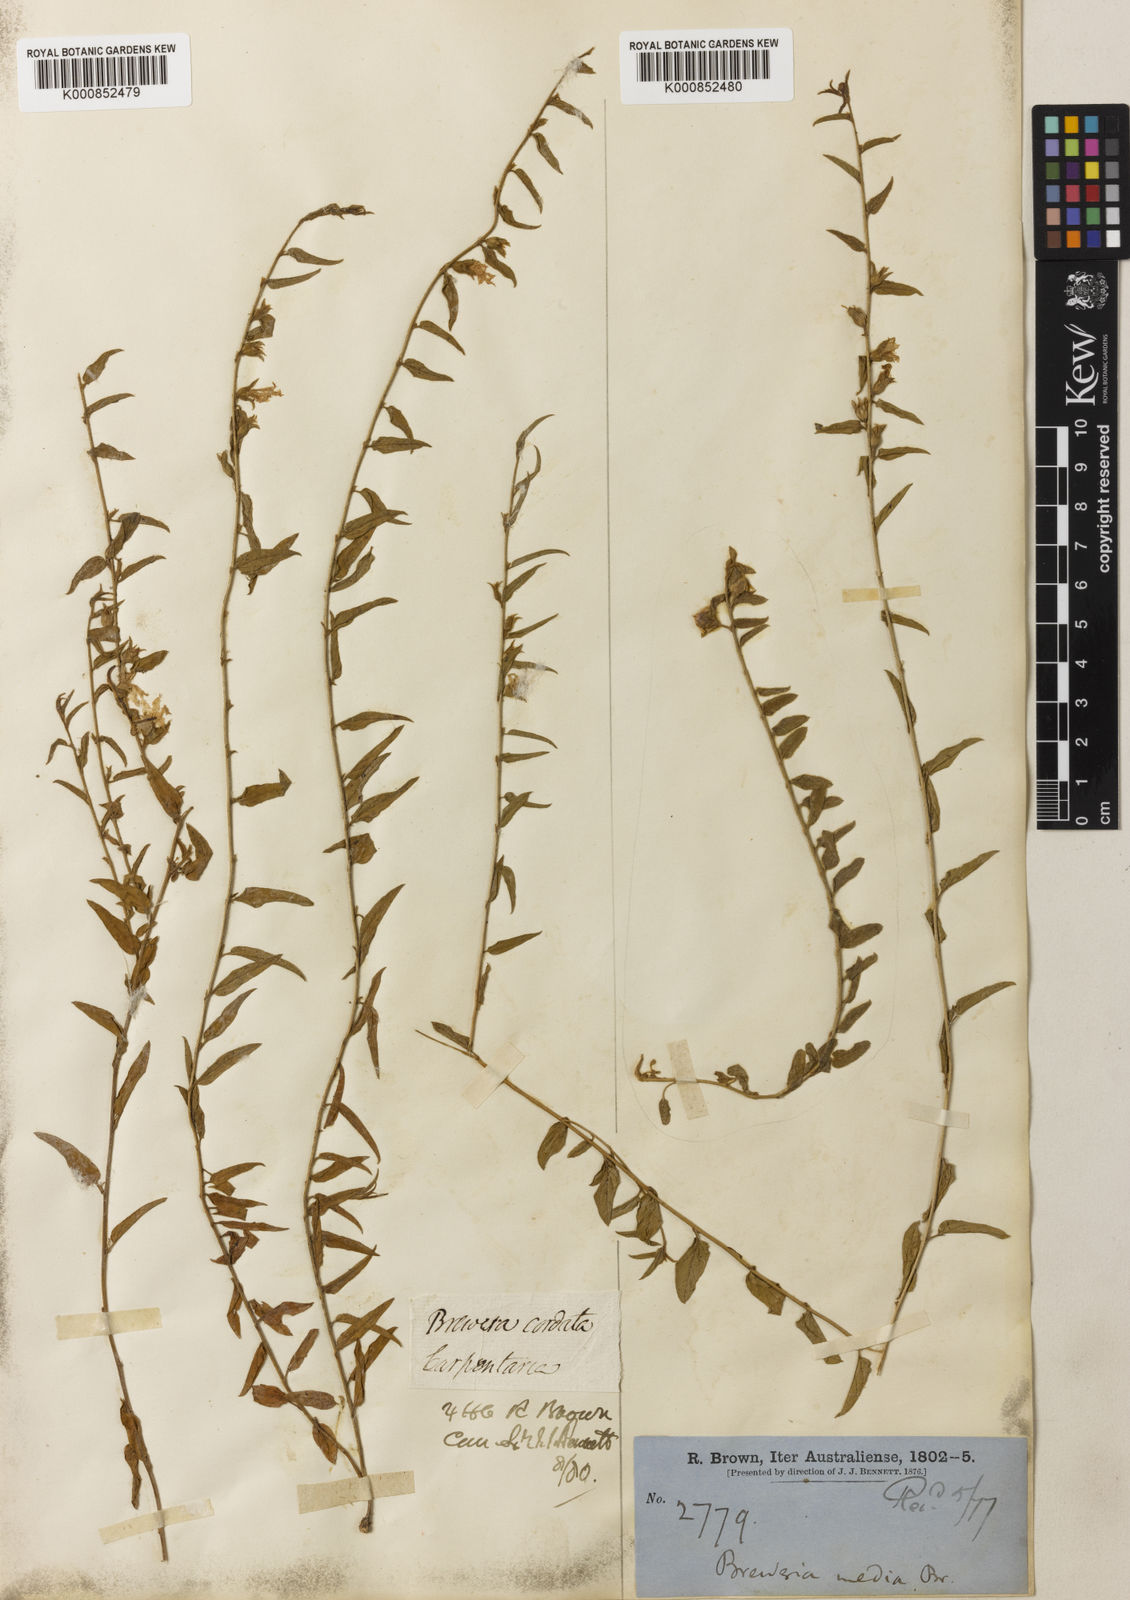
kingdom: Plantae
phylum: Tracheophyta
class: Magnoliopsida
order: Solanales
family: Convolvulaceae
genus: Bonamia
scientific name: Bonamia media
